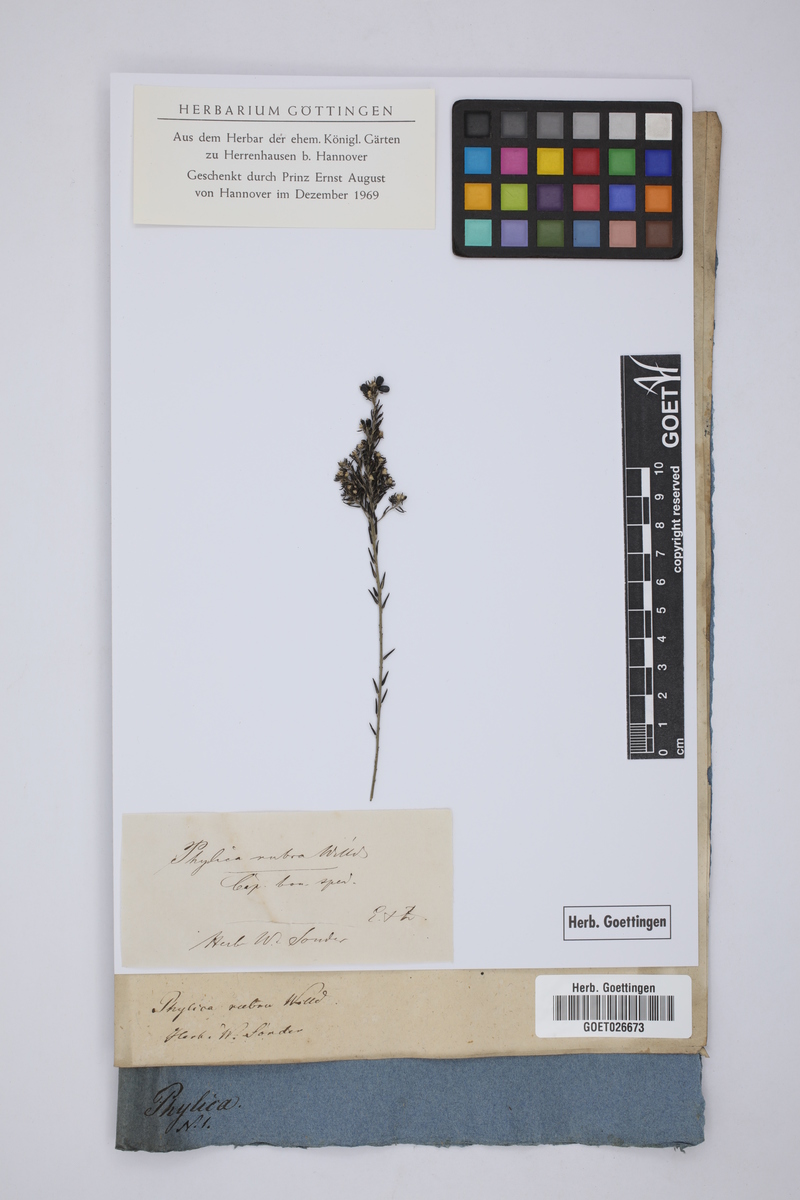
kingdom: Plantae
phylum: Tracheophyta
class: Magnoliopsida
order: Rosales
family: Rhamnaceae
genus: Phylica
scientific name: Phylica rubra
